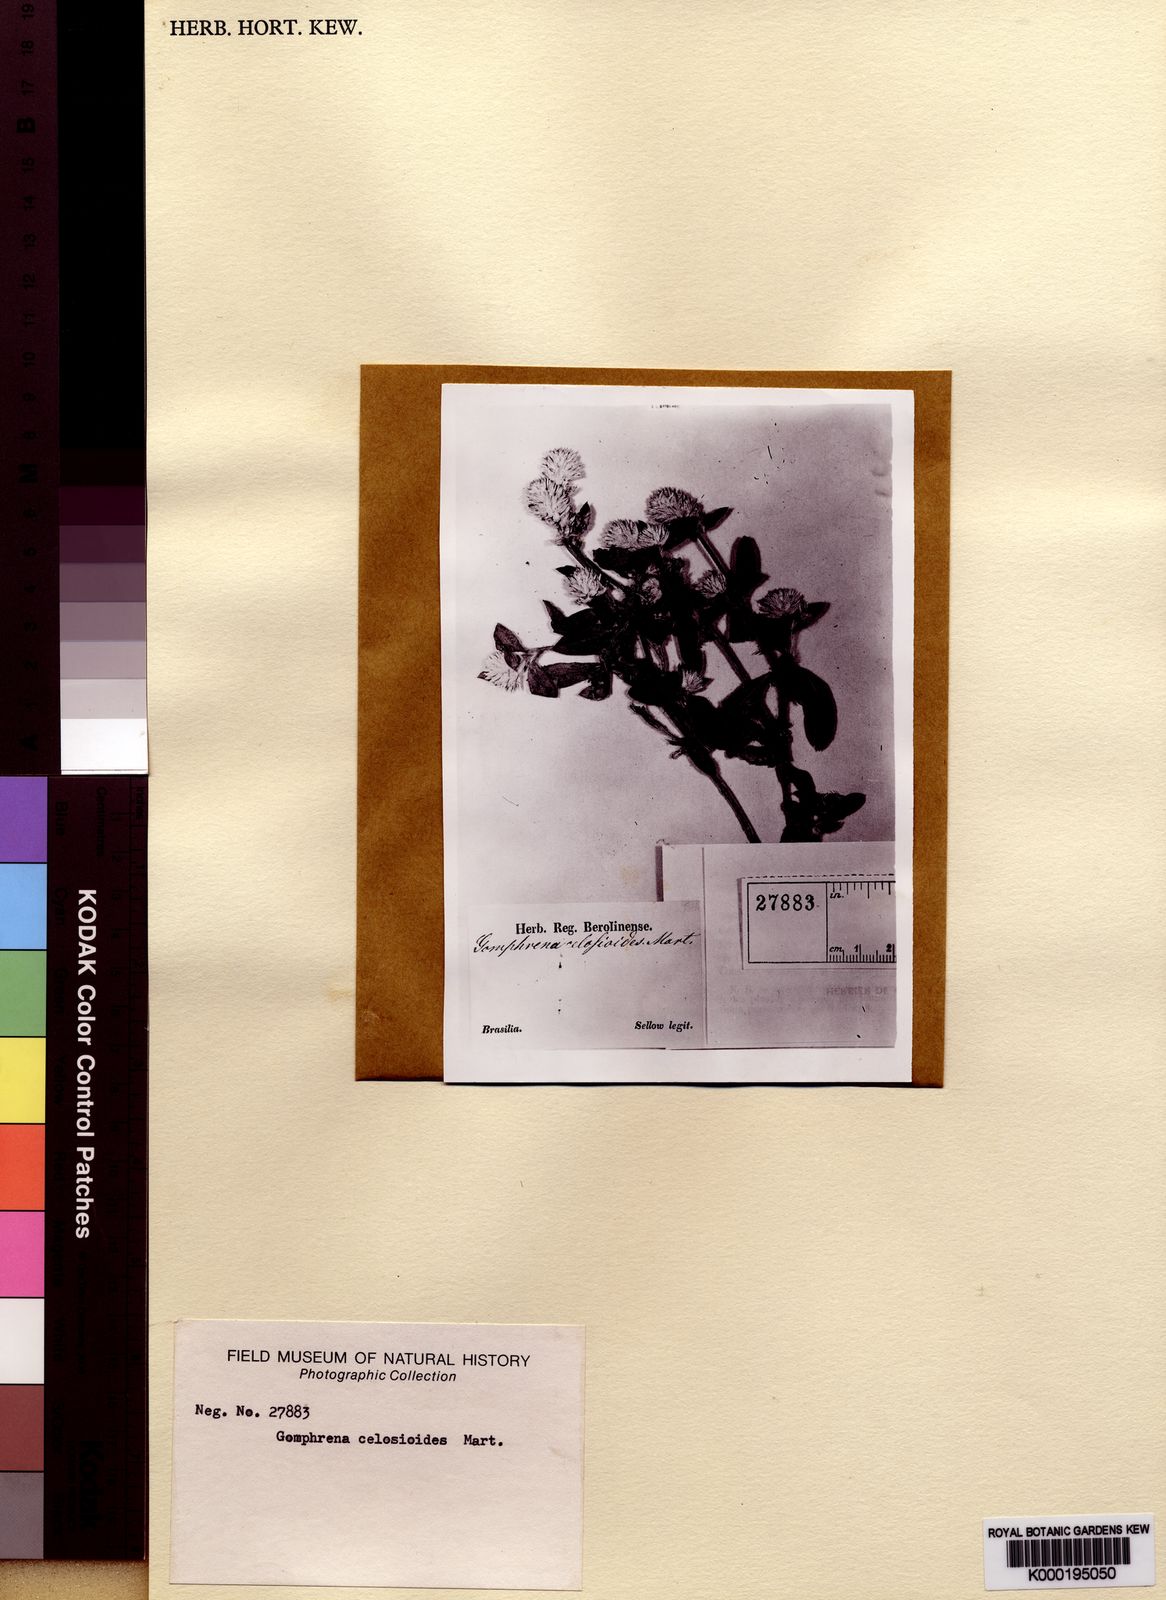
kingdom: Plantae
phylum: Tracheophyta
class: Magnoliopsida
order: Caryophyllales
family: Amaranthaceae
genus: Gomphrena
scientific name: Gomphrena celosioides
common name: Gomphrena-weed
